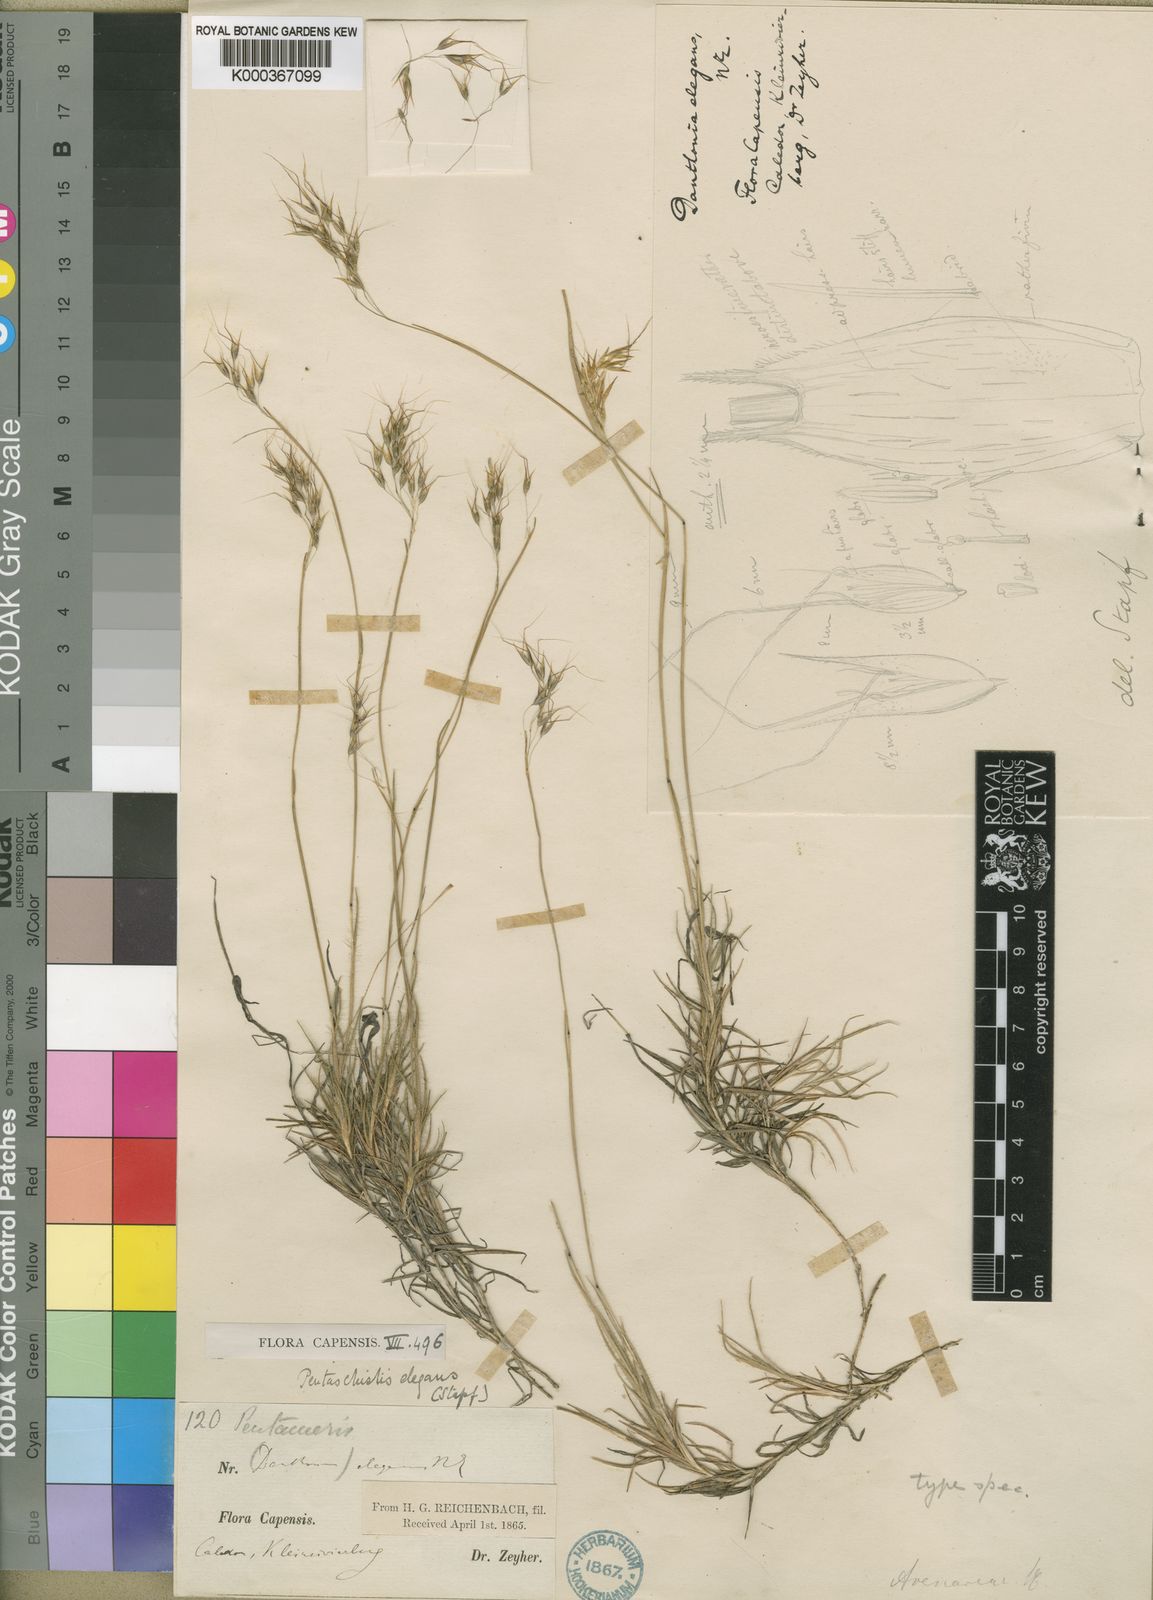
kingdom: Plantae
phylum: Tracheophyta
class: Liliopsida
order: Poales
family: Poaceae
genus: Pentameris
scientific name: Pentameris elegans
